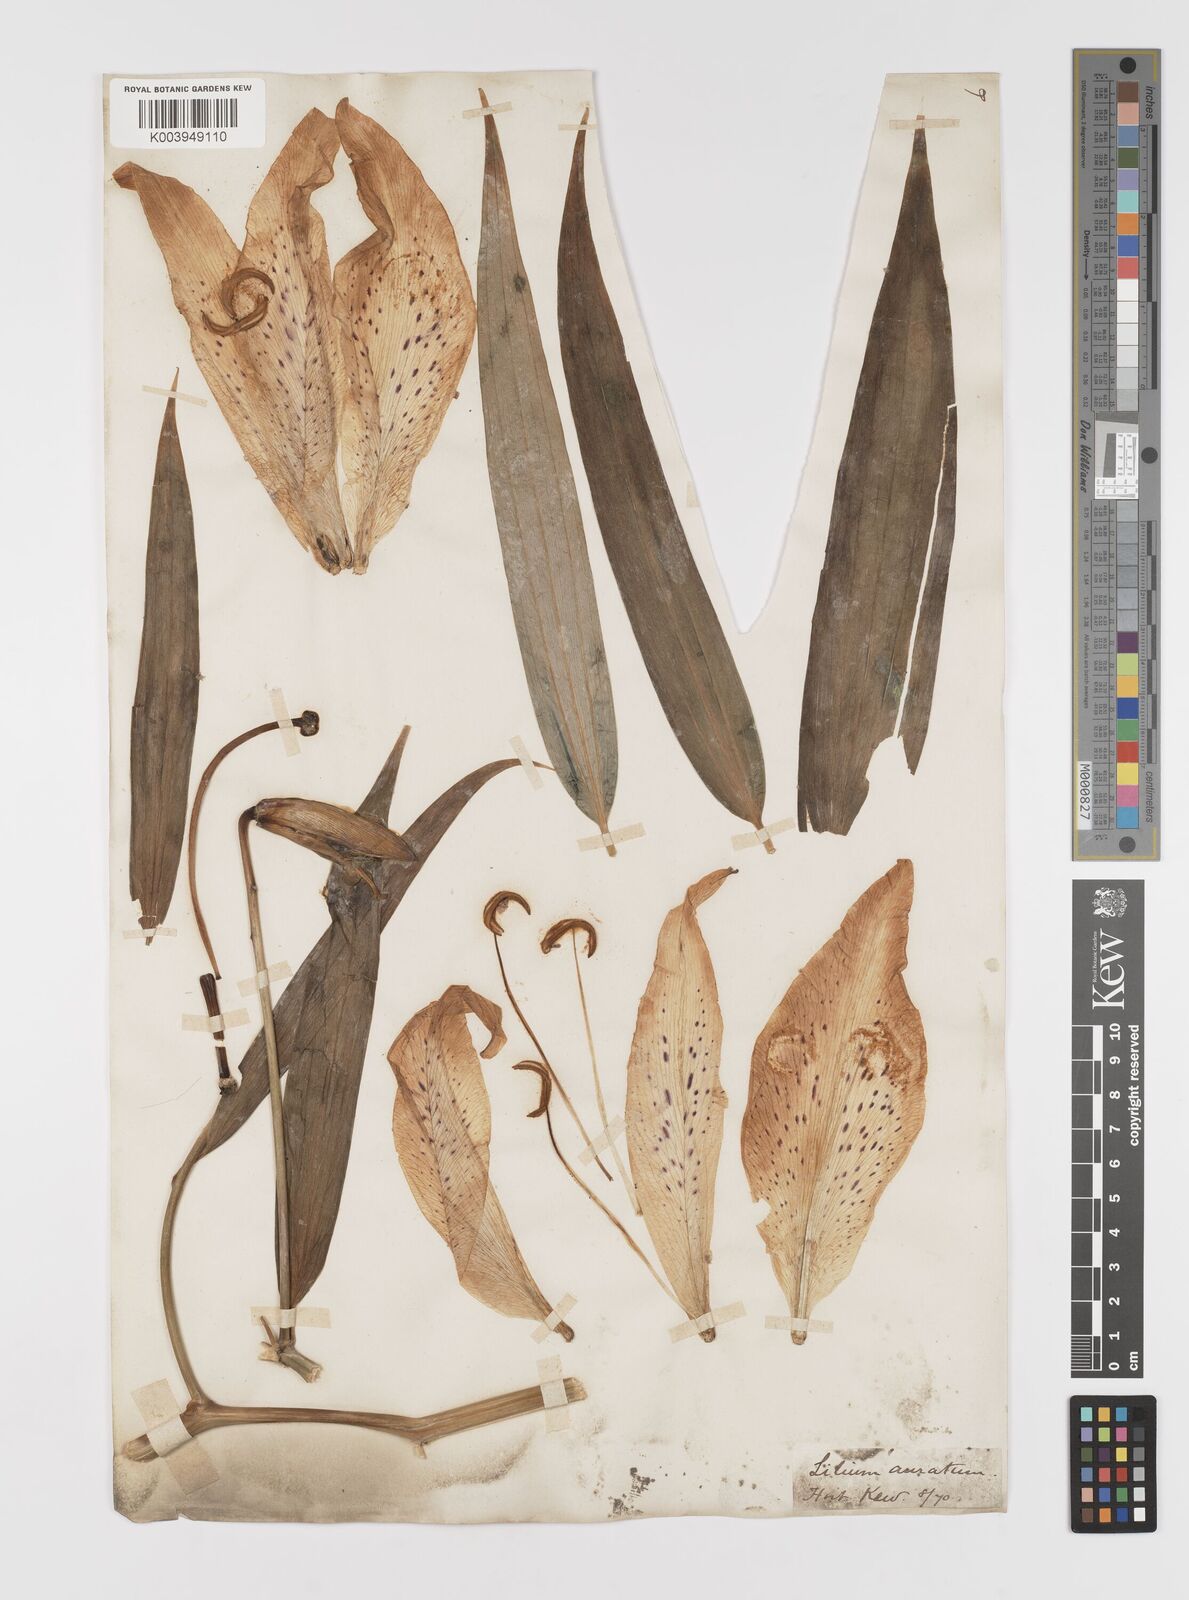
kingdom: Plantae
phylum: Tracheophyta
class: Liliopsida
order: Liliales
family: Liliaceae
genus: Lilium
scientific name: Lilium auratum
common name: Golden-ray lily
